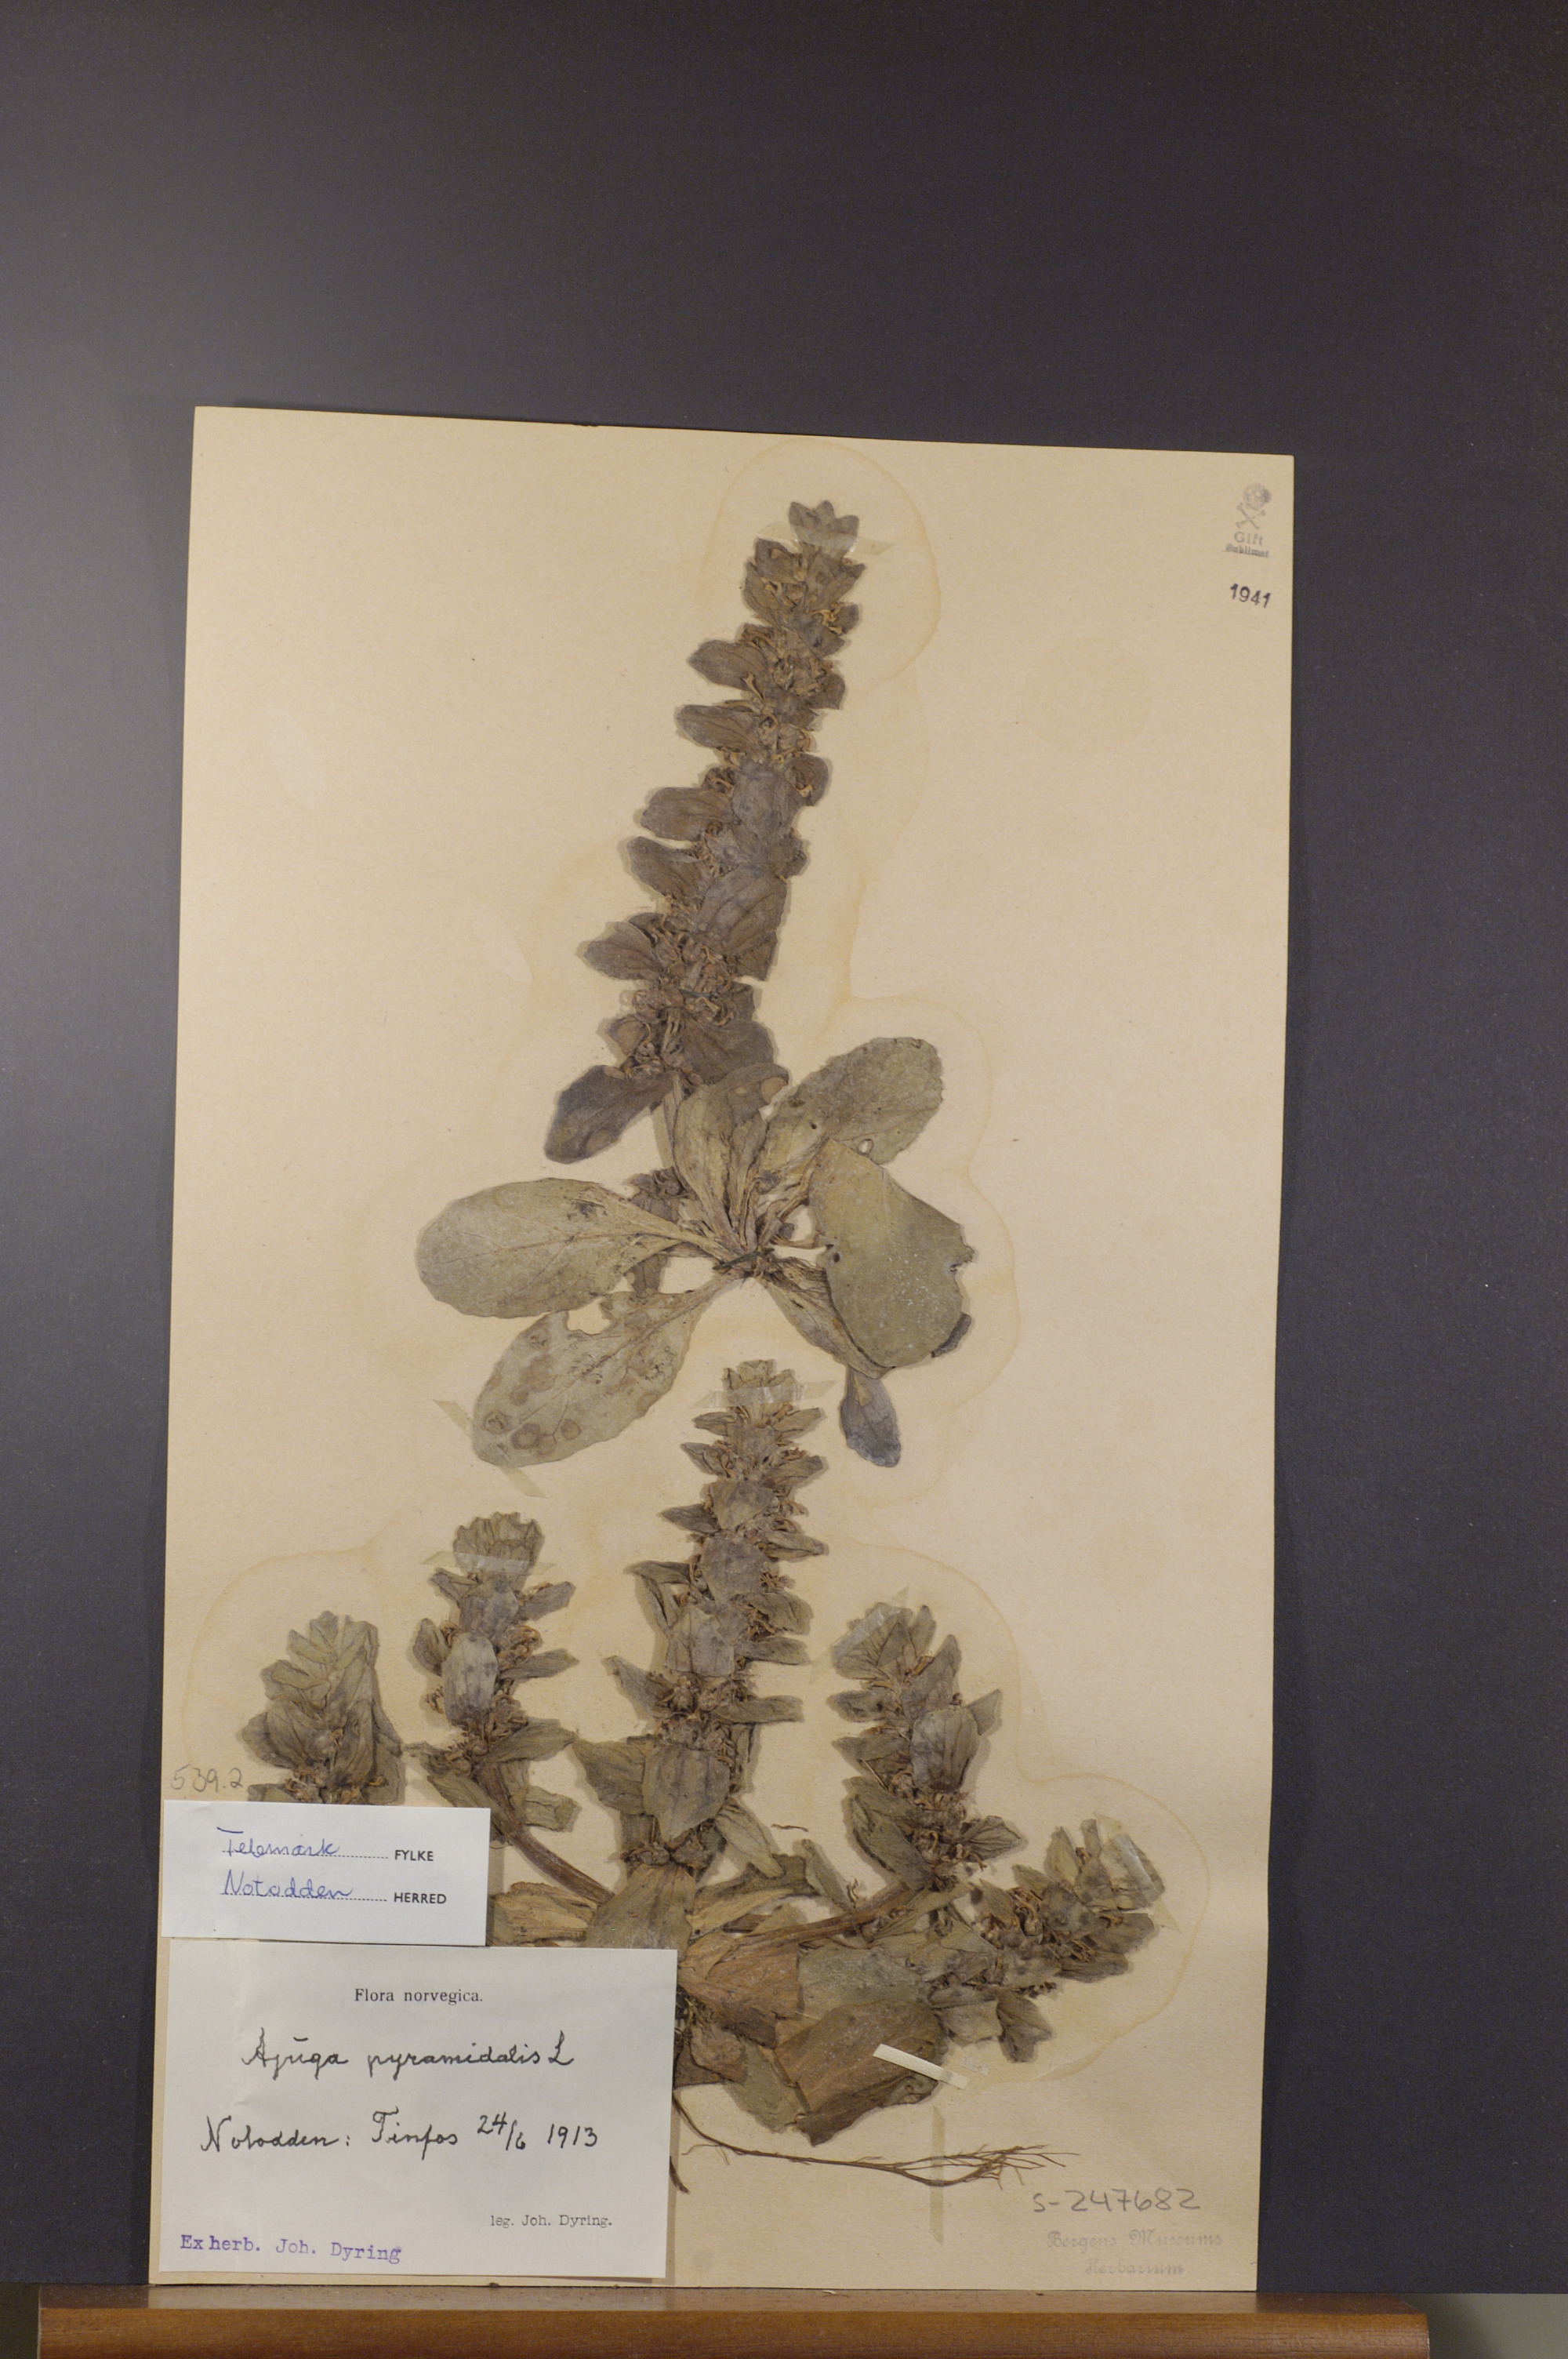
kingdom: Plantae
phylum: Tracheophyta
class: Magnoliopsida
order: Lamiales
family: Lamiaceae
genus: Ajuga
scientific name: Ajuga pyramidalis
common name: Pyramid bugle
